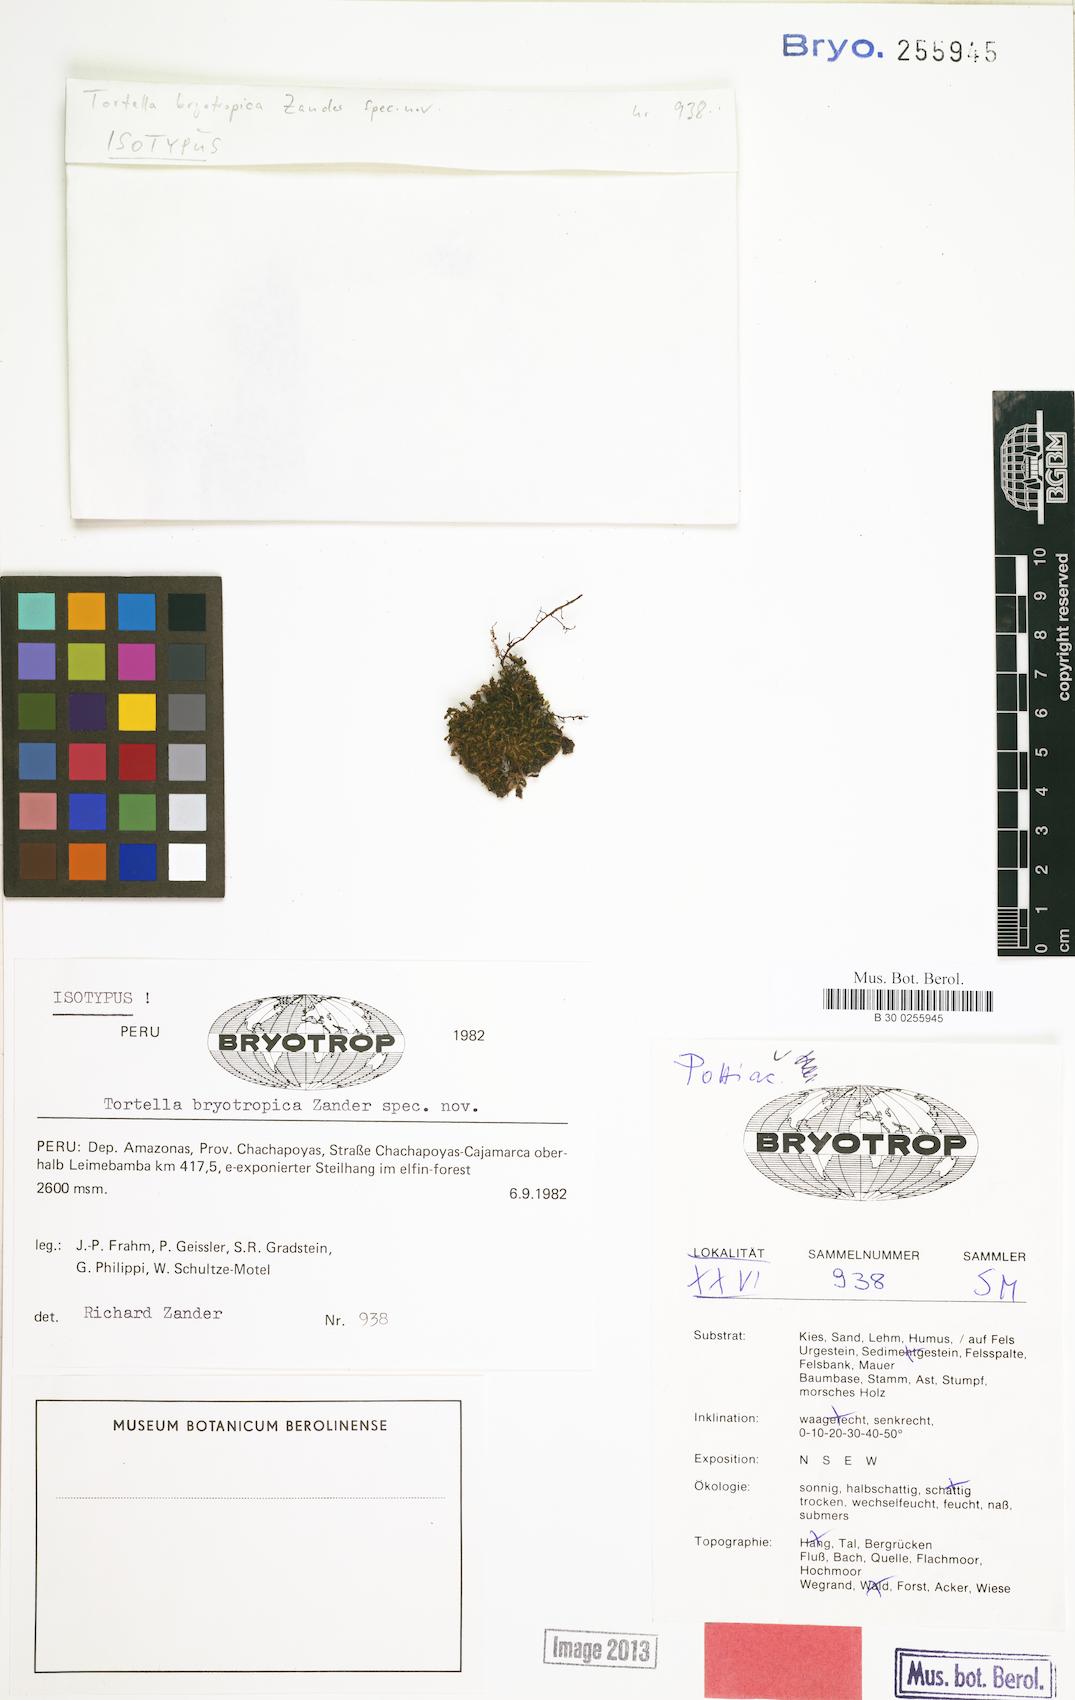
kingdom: Plantae
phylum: Bryophyta
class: Bryopsida
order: Pottiales
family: Pottiaceae
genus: Tortella
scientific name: Tortella bryotropica
